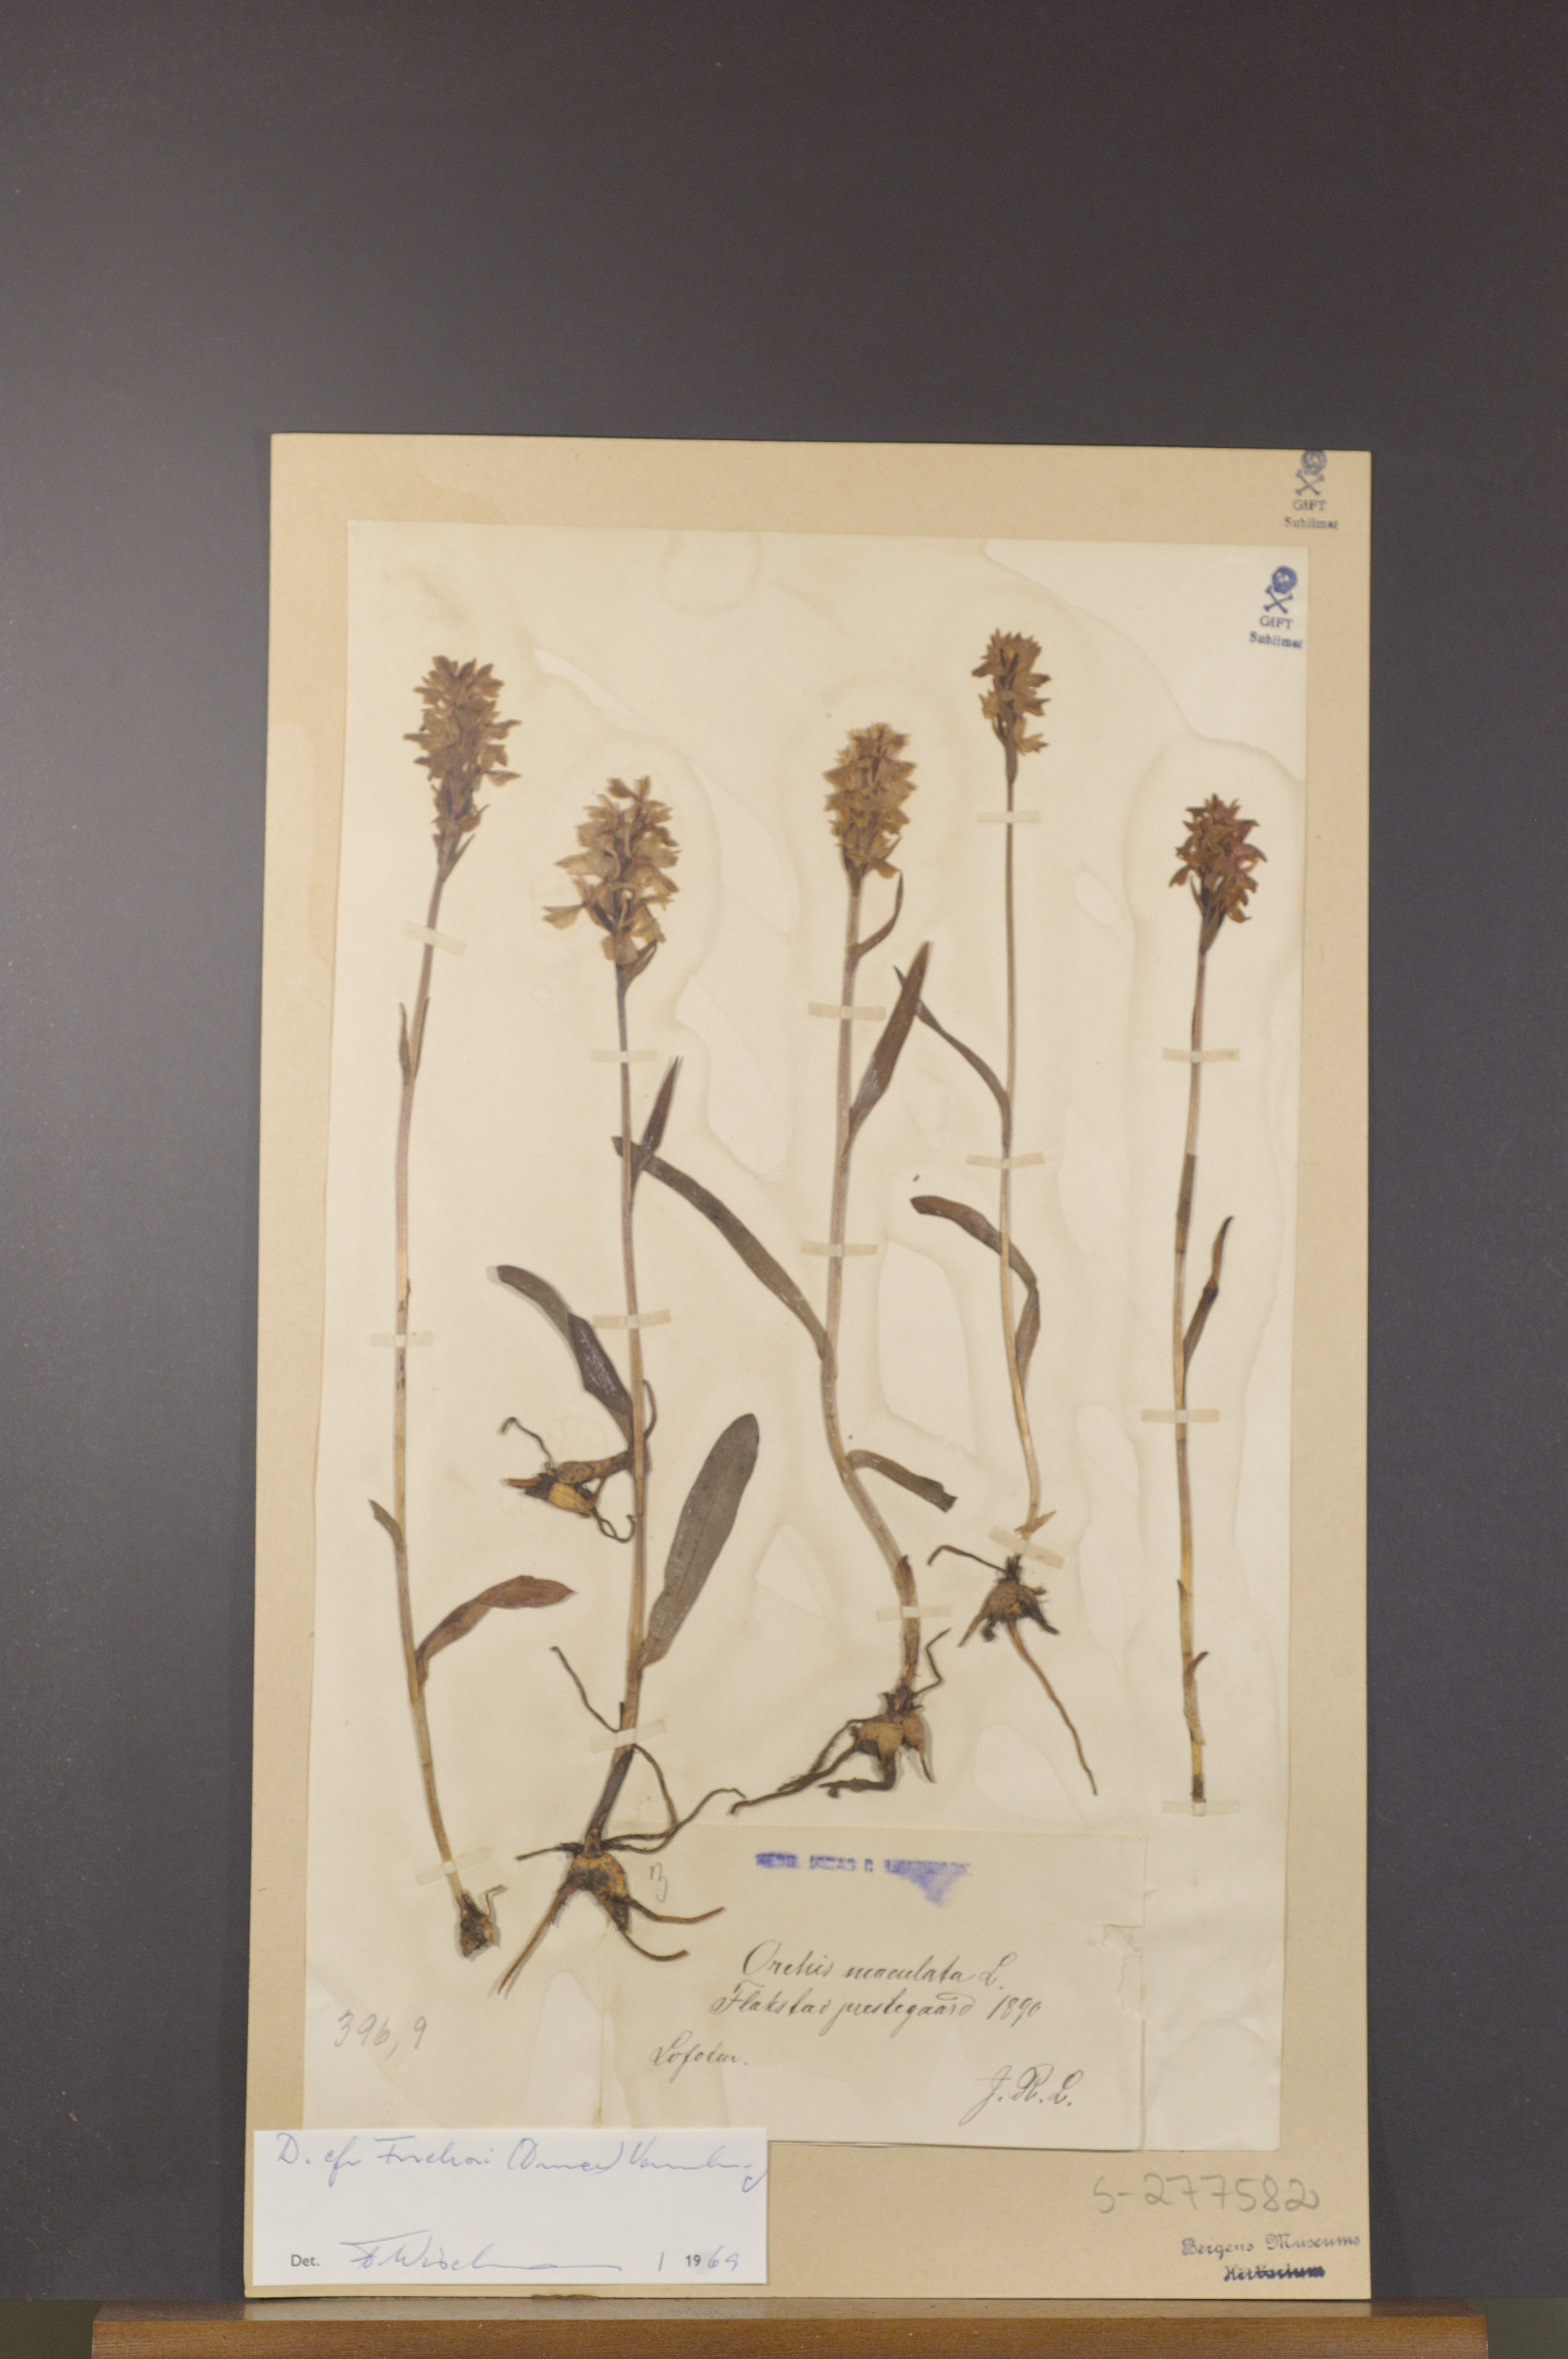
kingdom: Plantae
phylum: Tracheophyta
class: Liliopsida
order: Asparagales
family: Orchidaceae
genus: Dactylorhiza
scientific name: Dactylorhiza maculata
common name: Heath spotted-orchid
